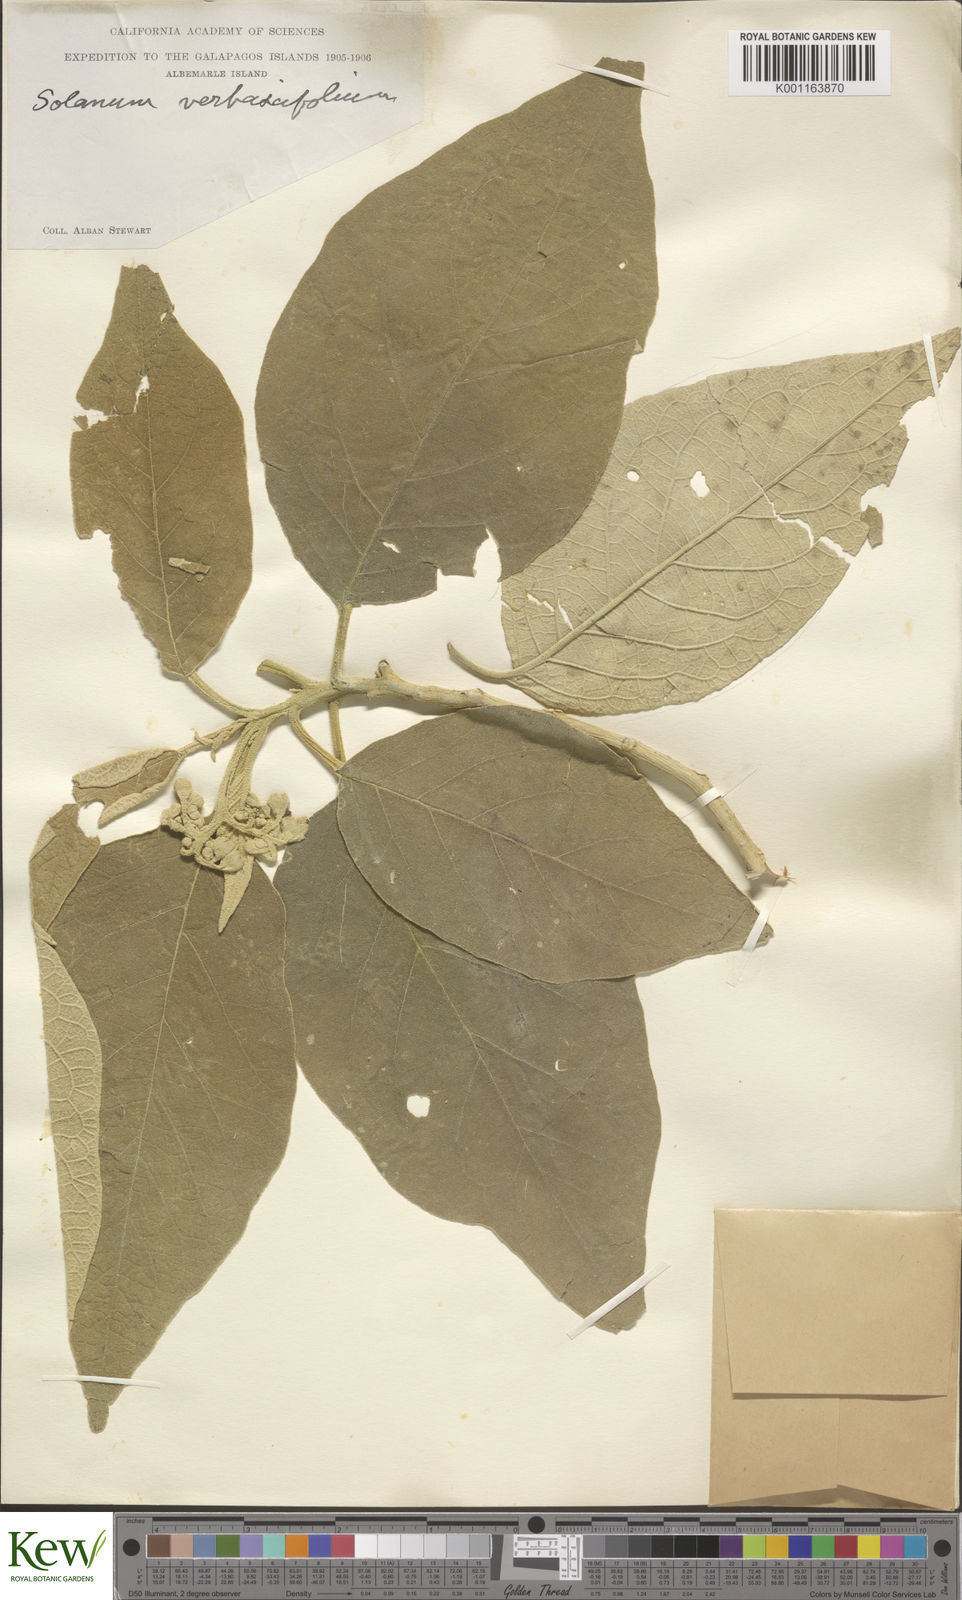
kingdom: Plantae
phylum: Tracheophyta
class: Magnoliopsida
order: Solanales
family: Solanaceae
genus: Solanum
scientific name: Solanum erianthum
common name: Tobacco-tree
